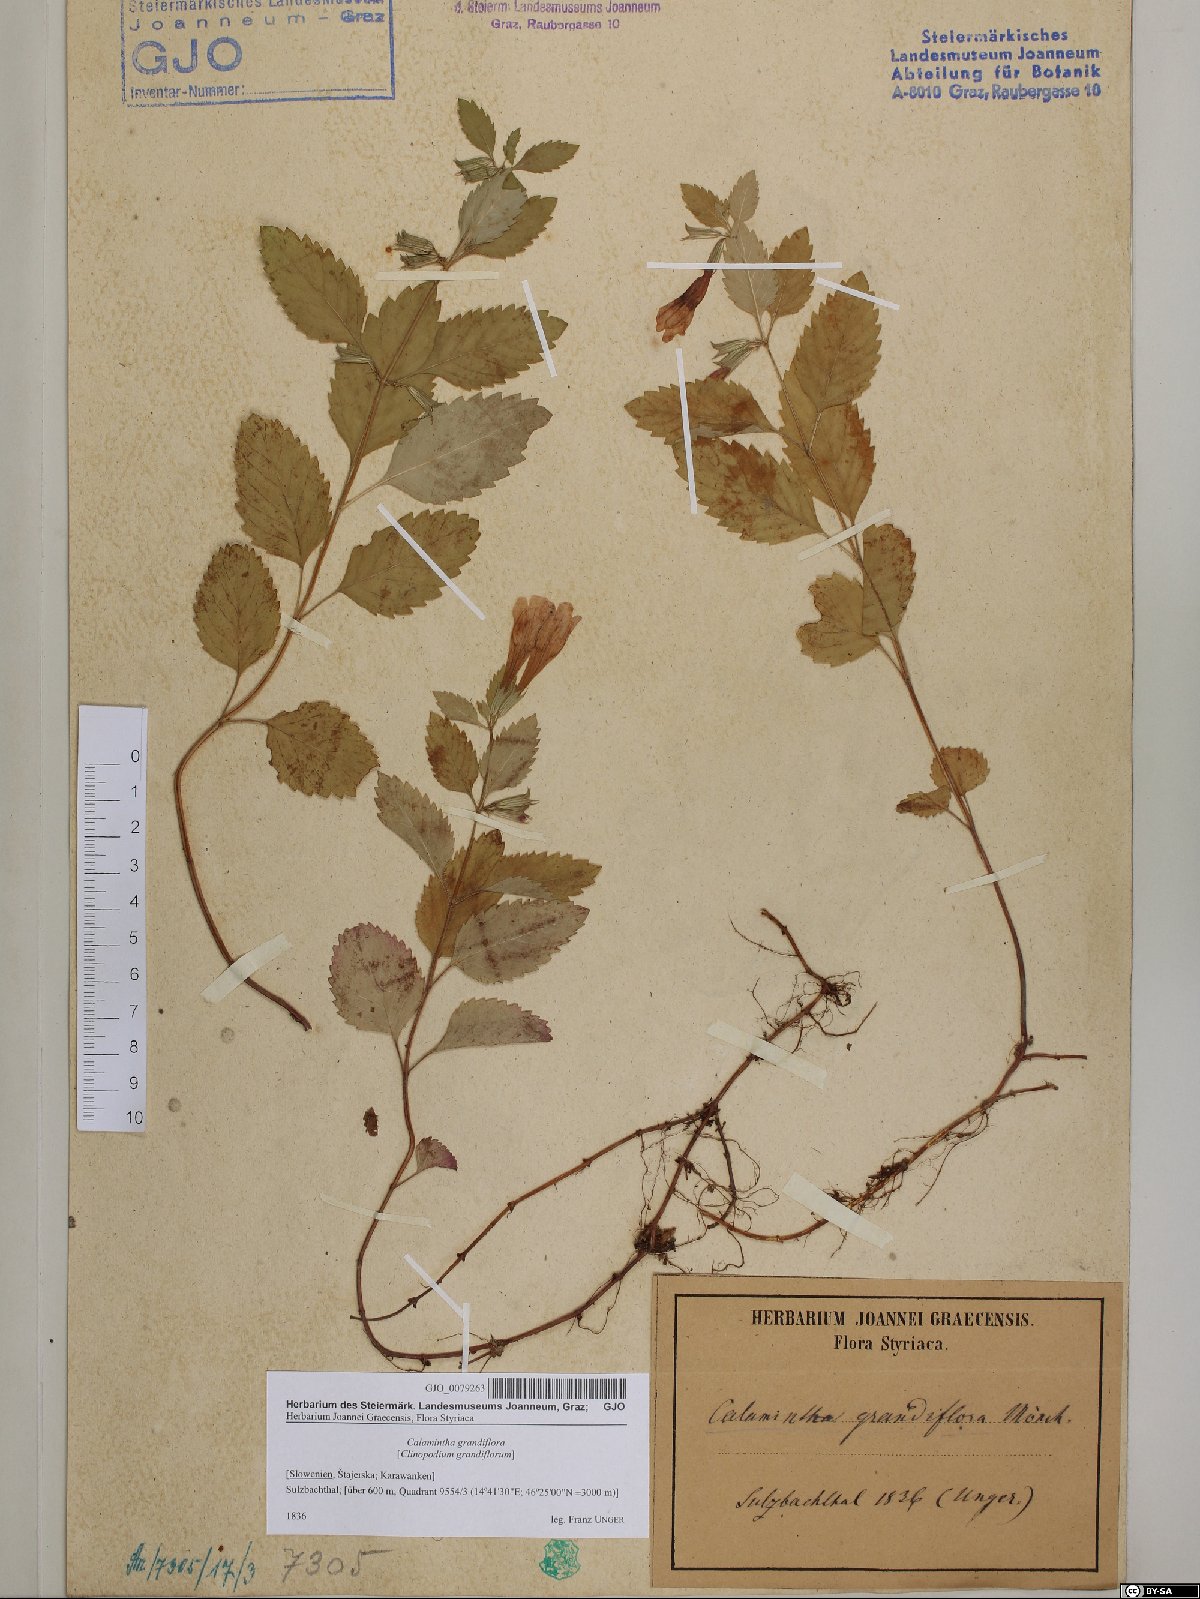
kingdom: Plantae
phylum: Tracheophyta
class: Magnoliopsida
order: Lamiales
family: Lamiaceae
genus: Clinopodium
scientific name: Clinopodium grandiflorum
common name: Greater calamint
